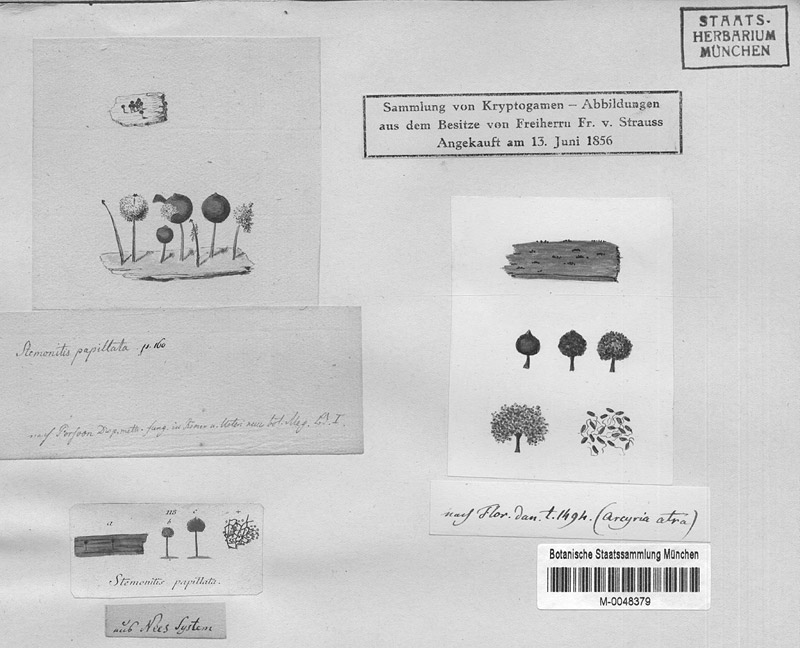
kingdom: Protozoa
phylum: Mycetozoa
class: Myxomycetes
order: Stemonitidales
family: Stemonitidaceae
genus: Enerthenema
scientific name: Enerthenema papillatum
